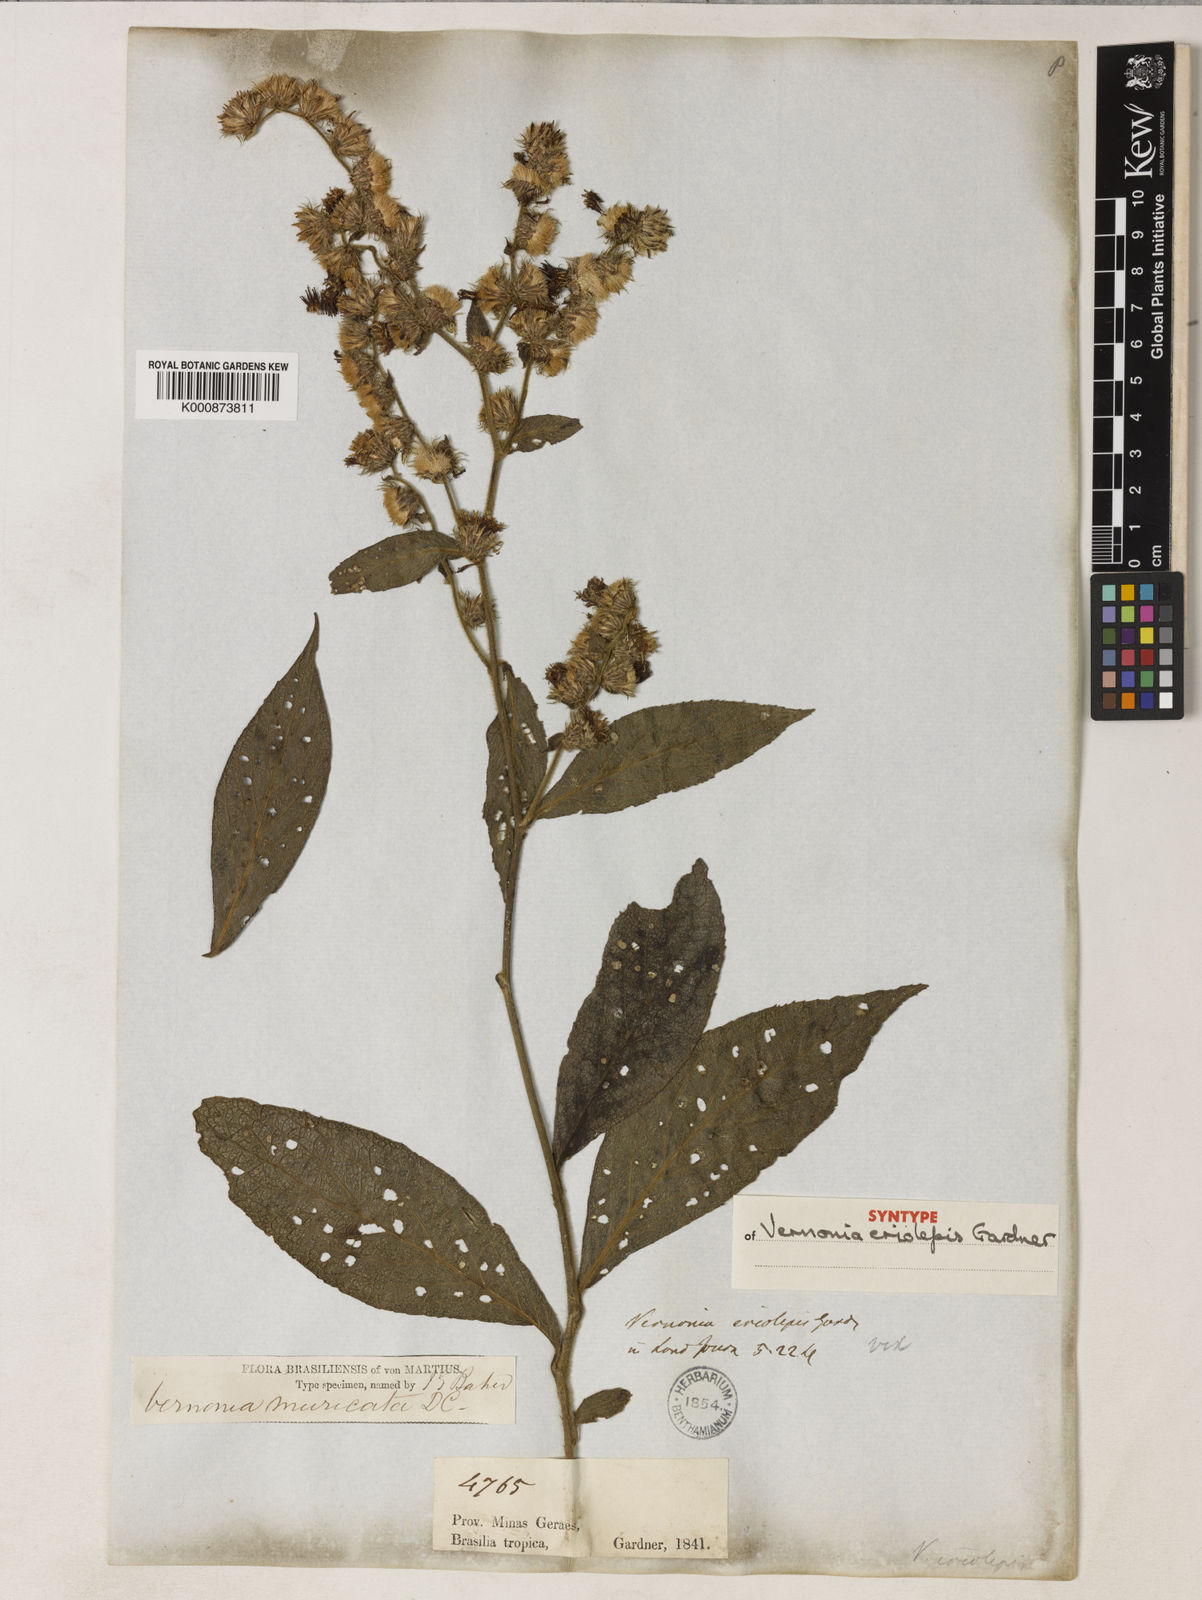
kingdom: Plantae
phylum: Tracheophyta
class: Magnoliopsida
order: Asterales
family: Asteraceae
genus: Lepidaploa
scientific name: Lepidaploa muricata
